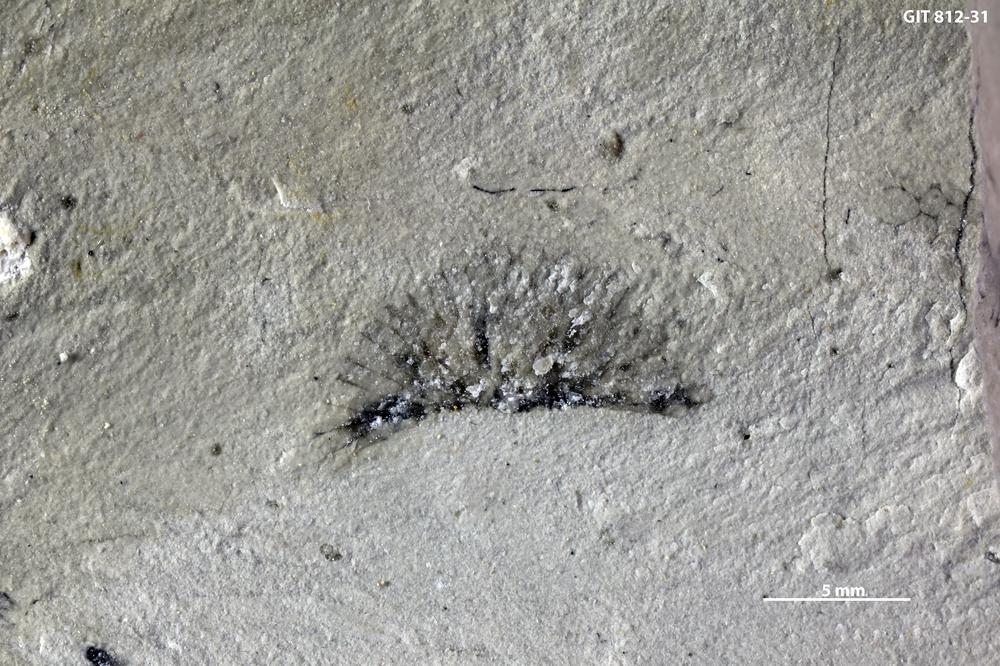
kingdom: Plantae
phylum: Chlorophyta
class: Ulvophyceae
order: Cyclocrinales
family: Coelosphaeridiaceae
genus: Coelosphaeridium
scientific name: Coelosphaeridium
